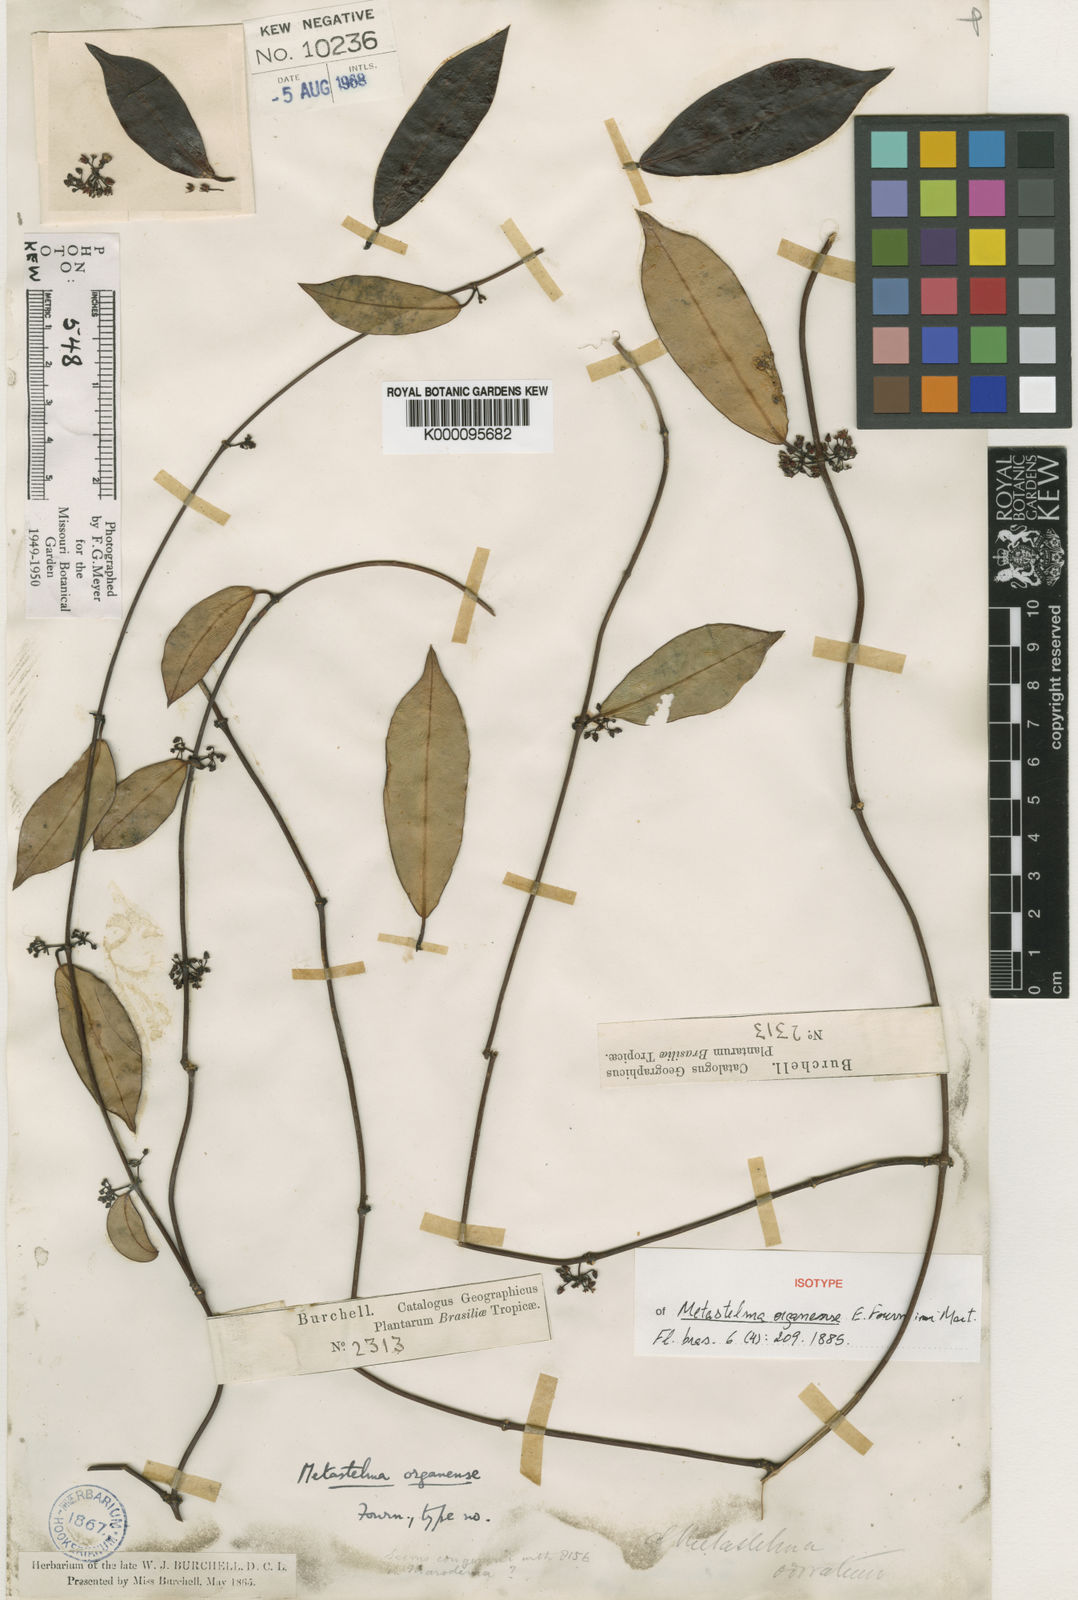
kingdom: Plantae
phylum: Tracheophyta
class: Magnoliopsida
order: Gentianales
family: Apocynaceae
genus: Peplonia
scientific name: Peplonia organensis
